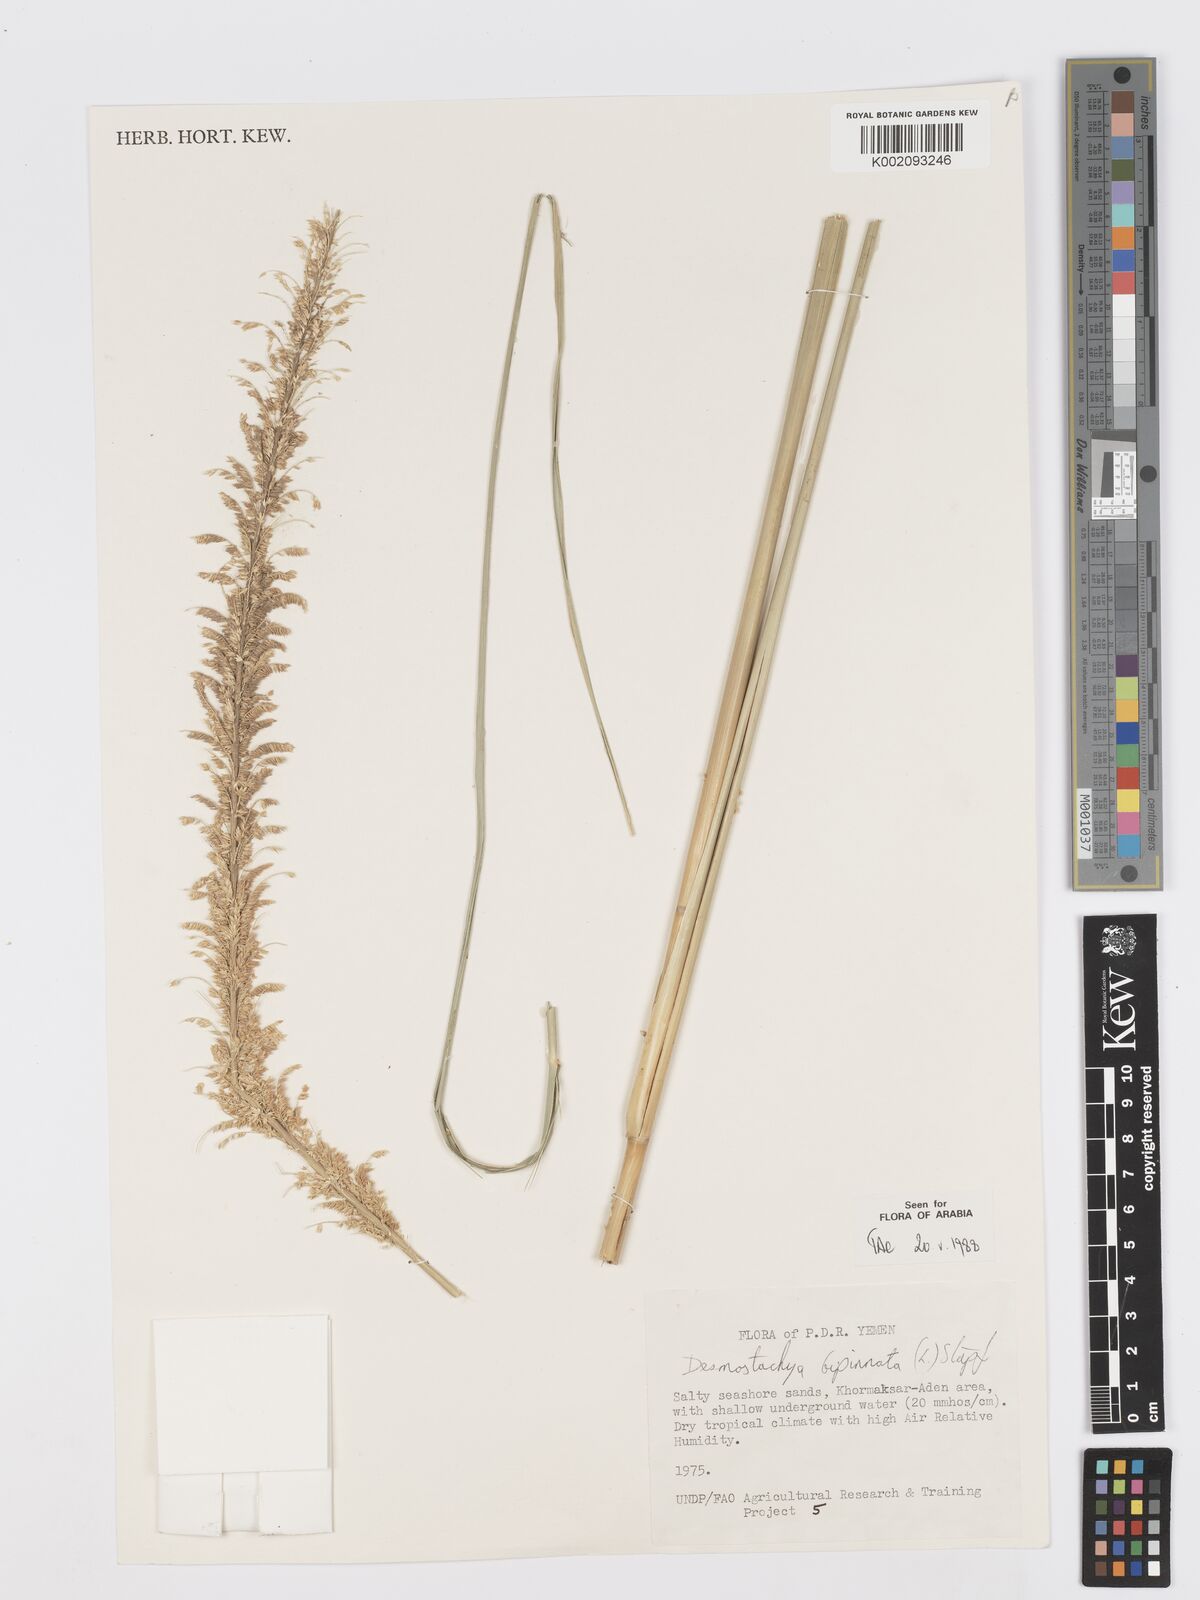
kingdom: Plantae
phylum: Tracheophyta
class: Liliopsida
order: Poales
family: Poaceae
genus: Desmostachya
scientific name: Desmostachya bipinnata
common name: Crowfoot grass
